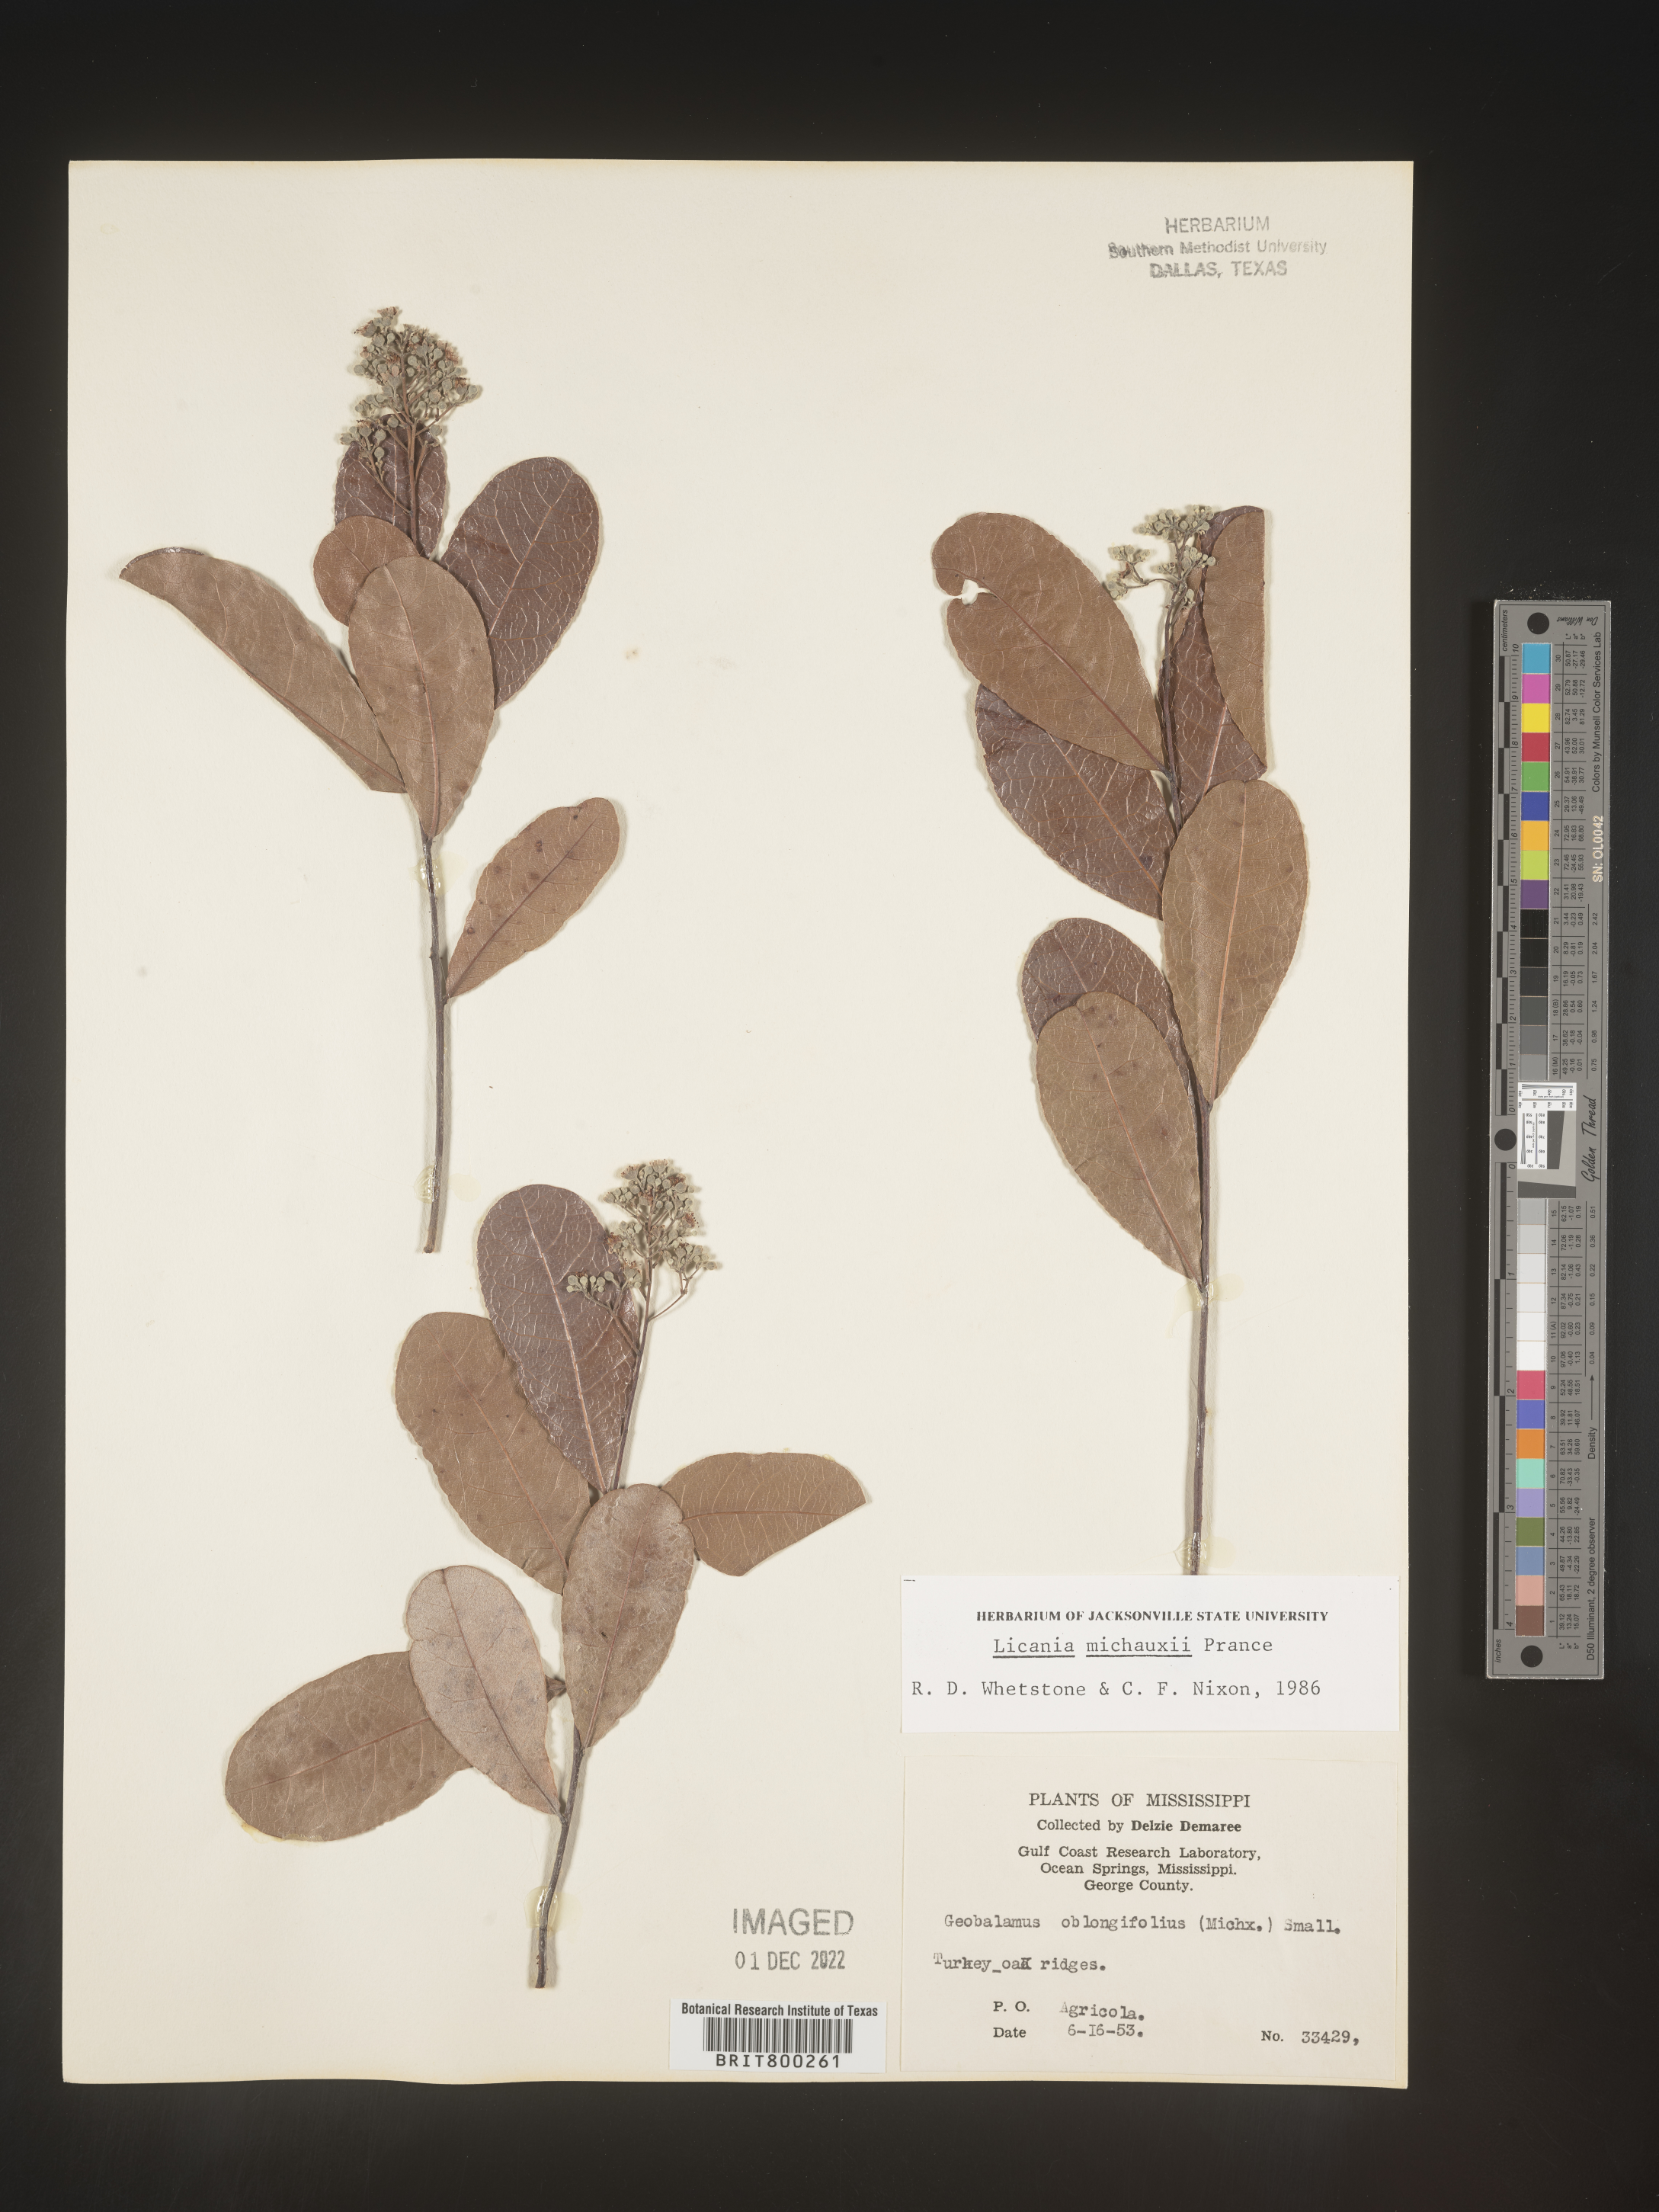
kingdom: Plantae
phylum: Tracheophyta
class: Magnoliopsida
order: Malpighiales
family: Chrysobalanaceae
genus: Geobalanus
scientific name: Geobalanus oblongifolius
